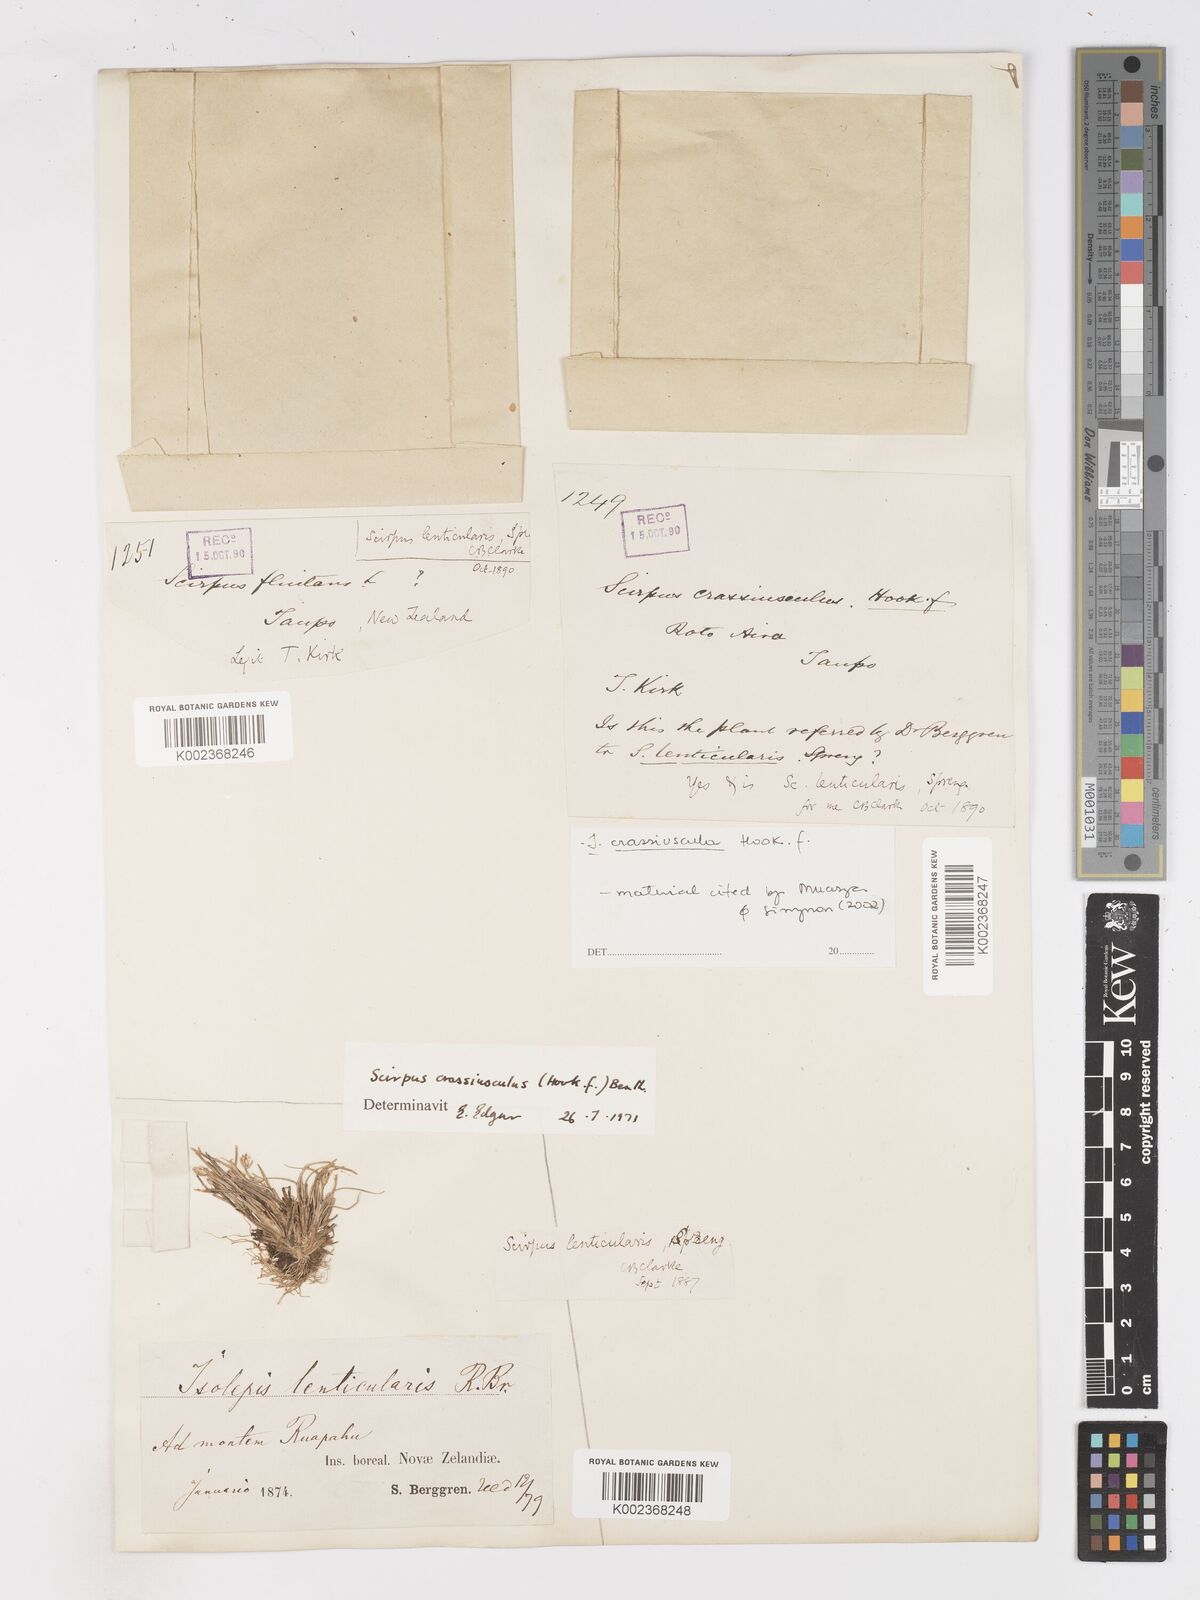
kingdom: Plantae
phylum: Tracheophyta
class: Liliopsida
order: Poales
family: Cyperaceae
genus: Isolepis
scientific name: Isolepis crassiuscula
